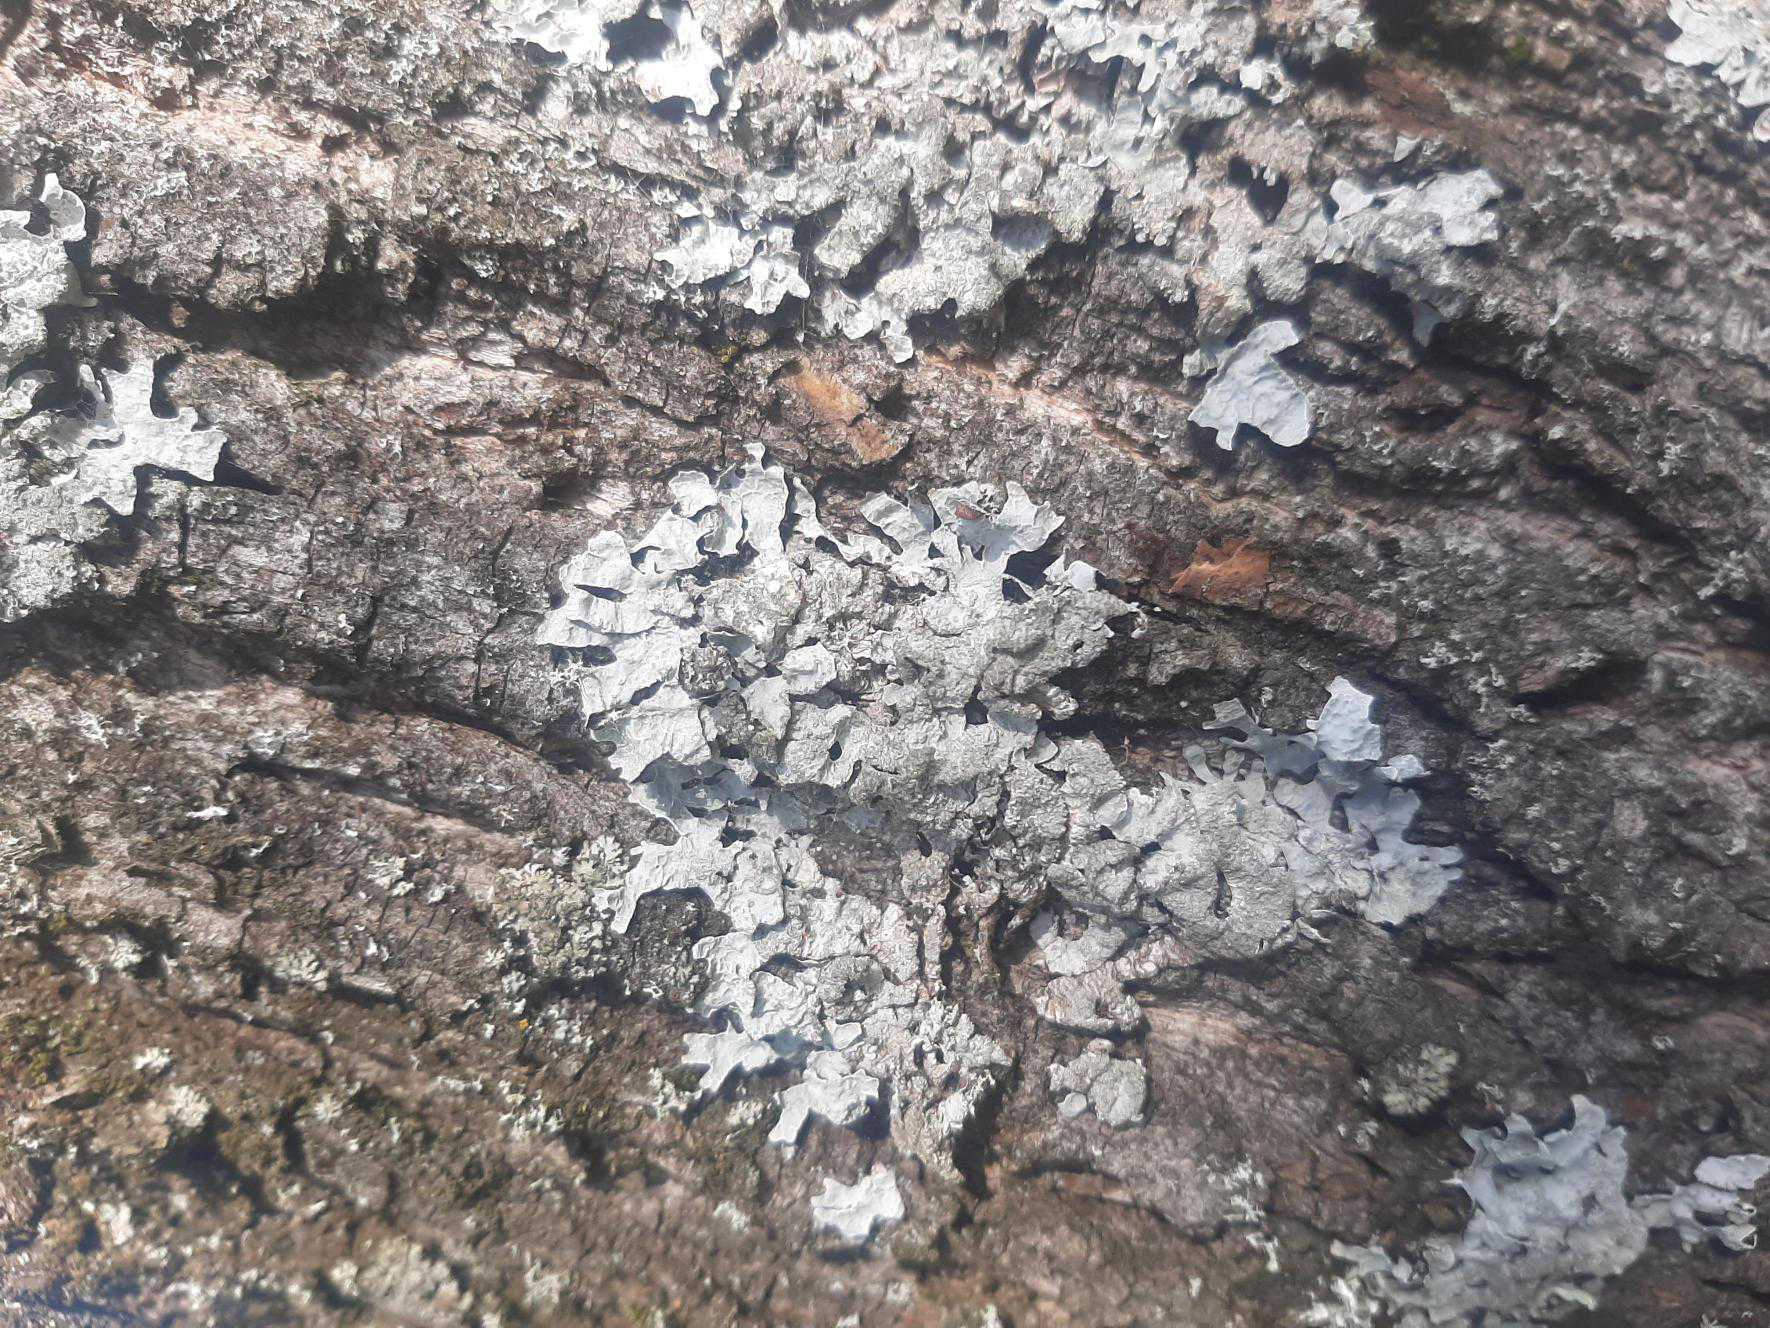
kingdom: Fungi
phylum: Ascomycota
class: Lecanoromycetes
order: Lecanorales
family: Parmeliaceae
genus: Parmelia
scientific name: Parmelia sulcata
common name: Rynket skållav
